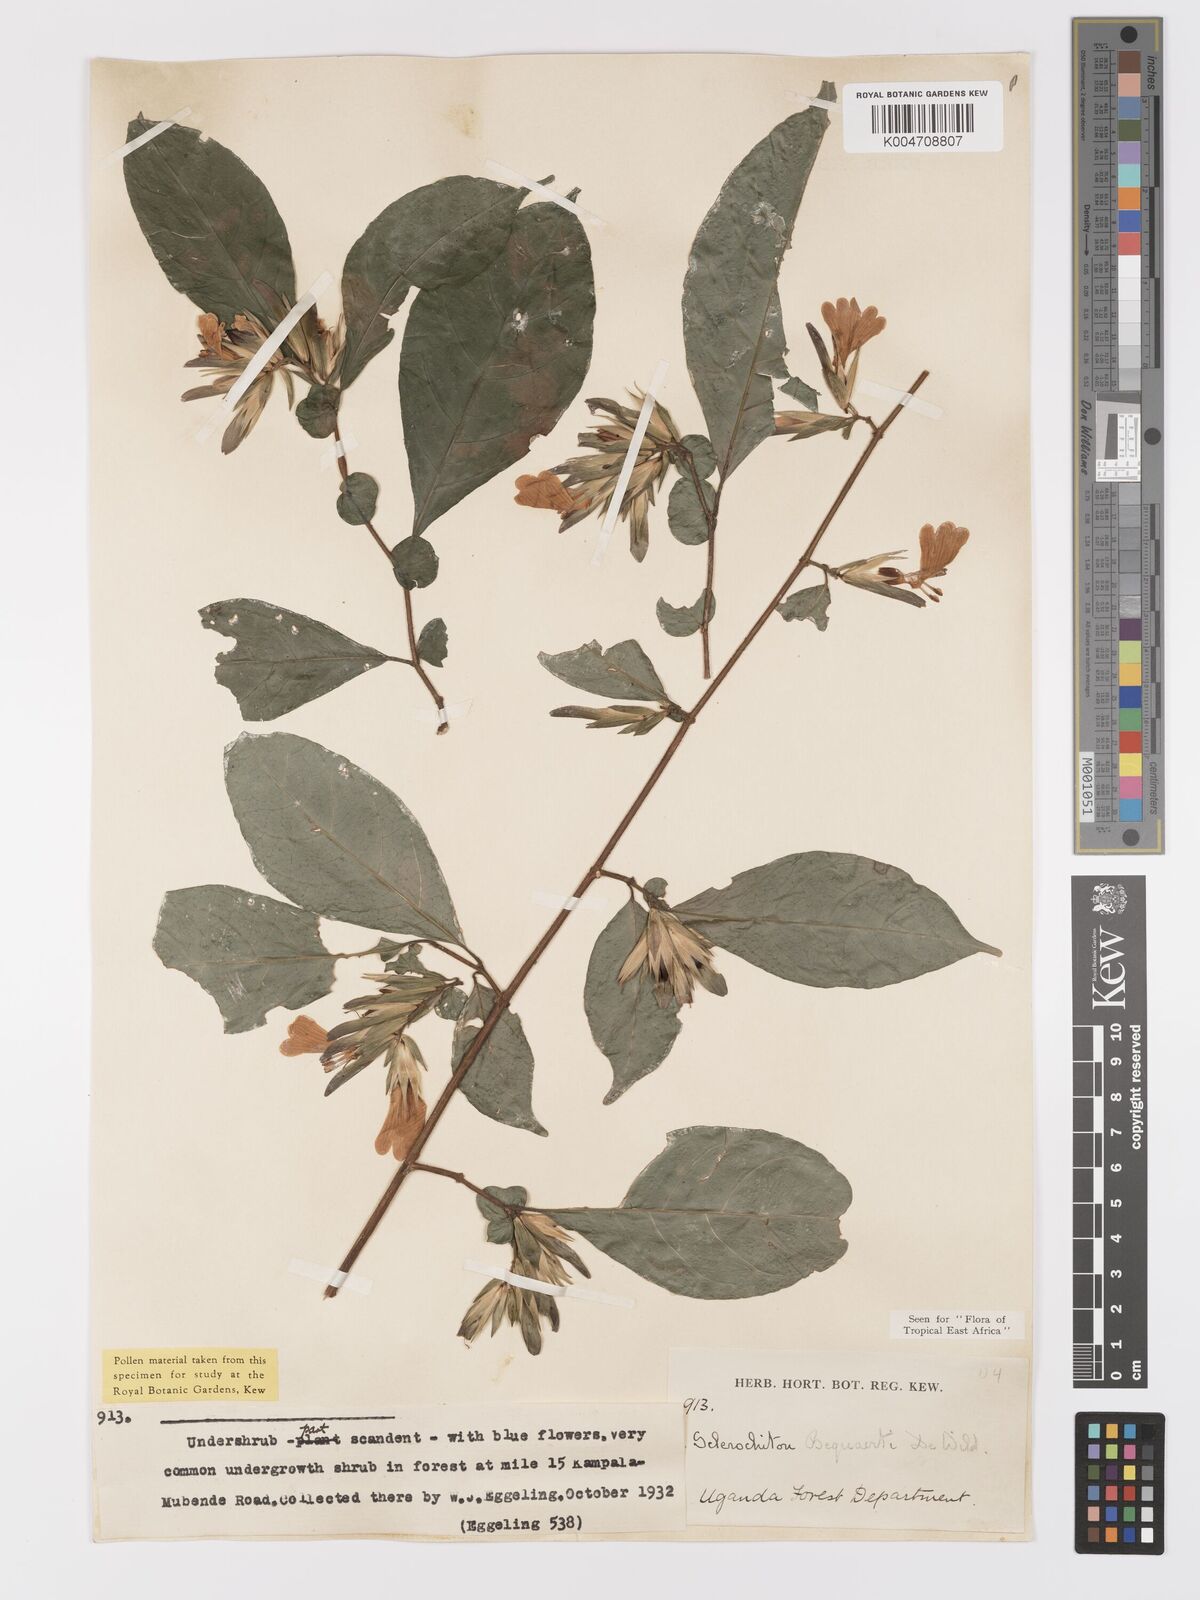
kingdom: Plantae
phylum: Tracheophyta
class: Magnoliopsida
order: Lamiales
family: Acanthaceae
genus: Sclerochiton
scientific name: Sclerochiton bequaertii
